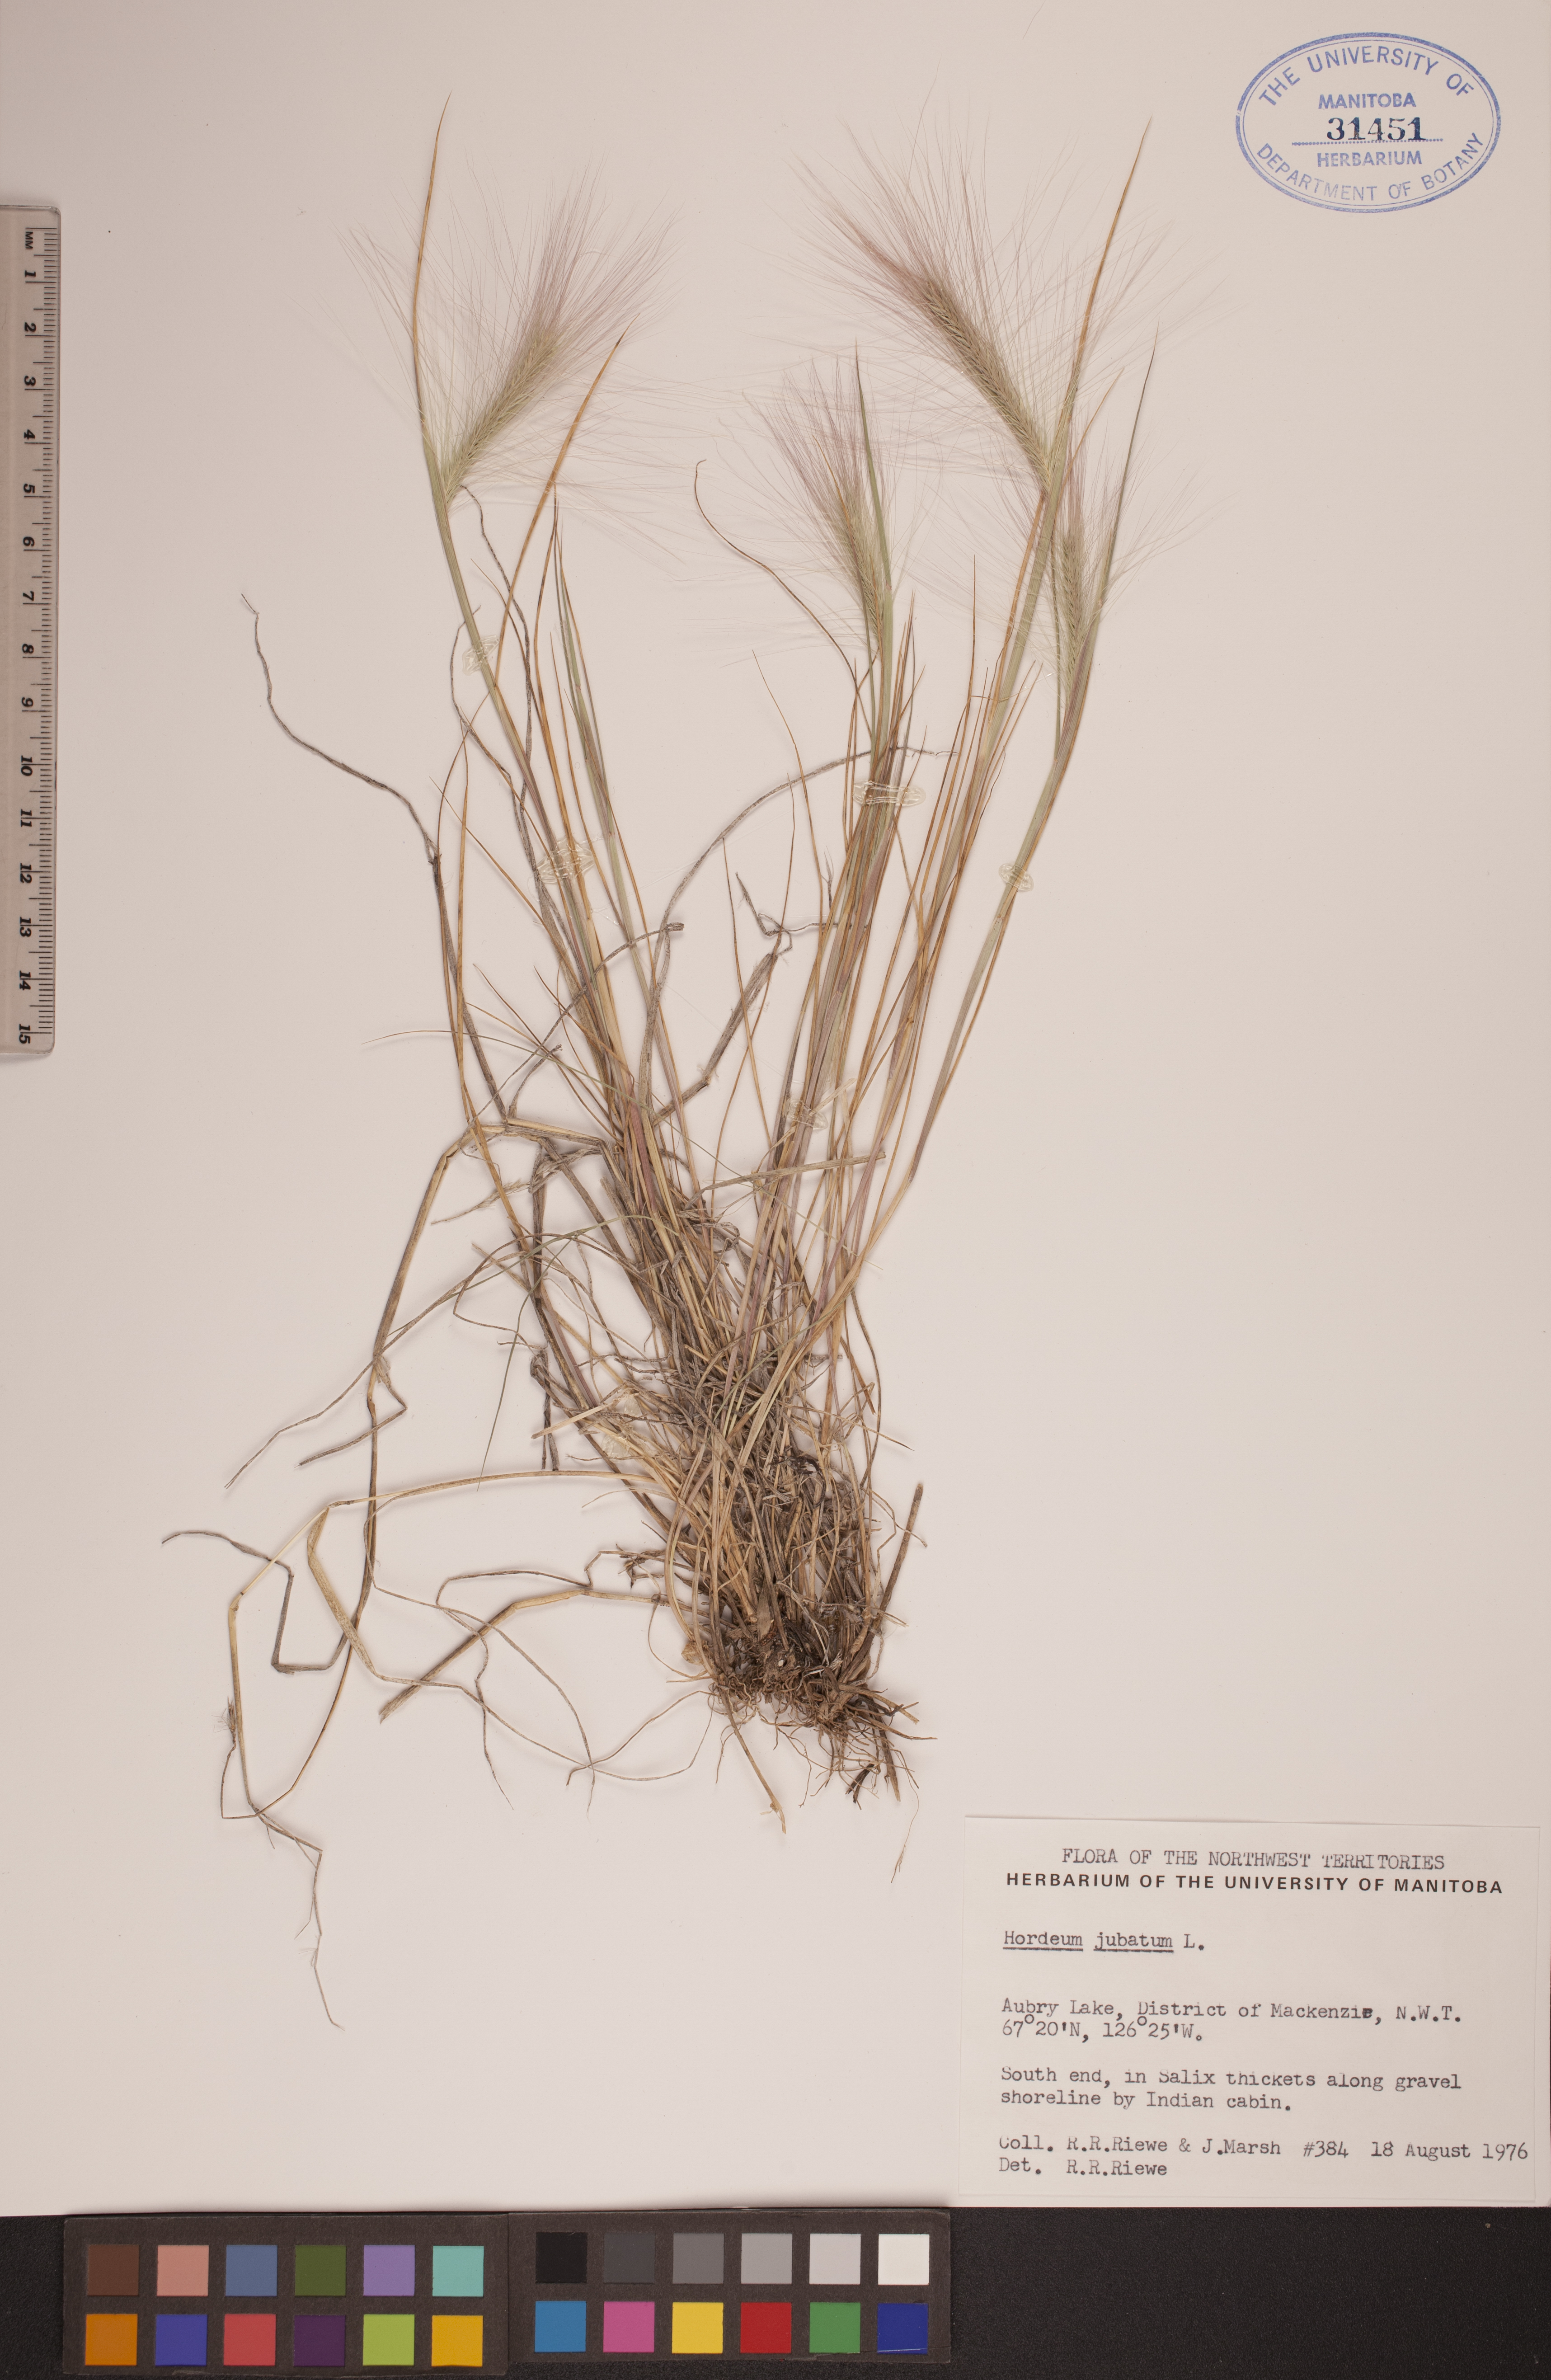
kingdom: Plantae
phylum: Tracheophyta
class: Liliopsida
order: Poales
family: Poaceae
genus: Hordeum
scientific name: Hordeum jubatum
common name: Foxtail barley
